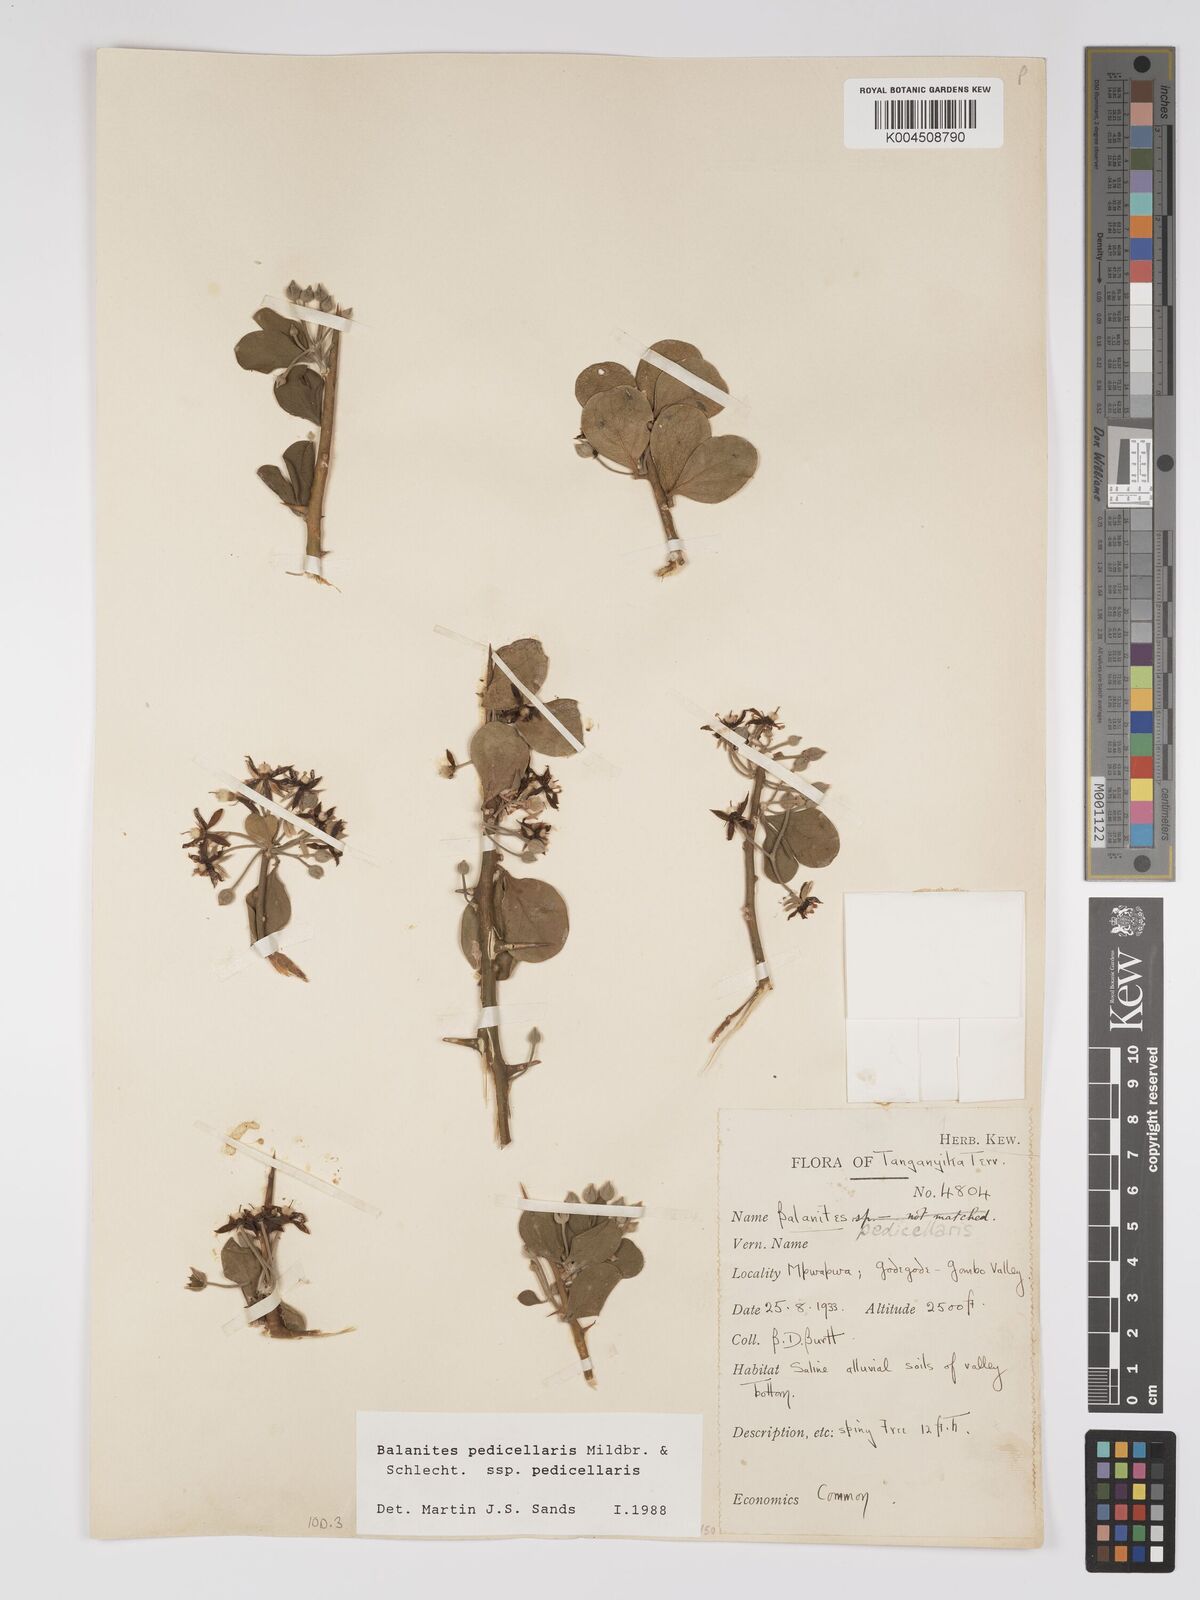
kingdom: Plantae
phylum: Tracheophyta
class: Magnoliopsida
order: Zygophyllales
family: Zygophyllaceae
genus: Balanites
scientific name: Balanites pedicellaris
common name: Small green-thorn
